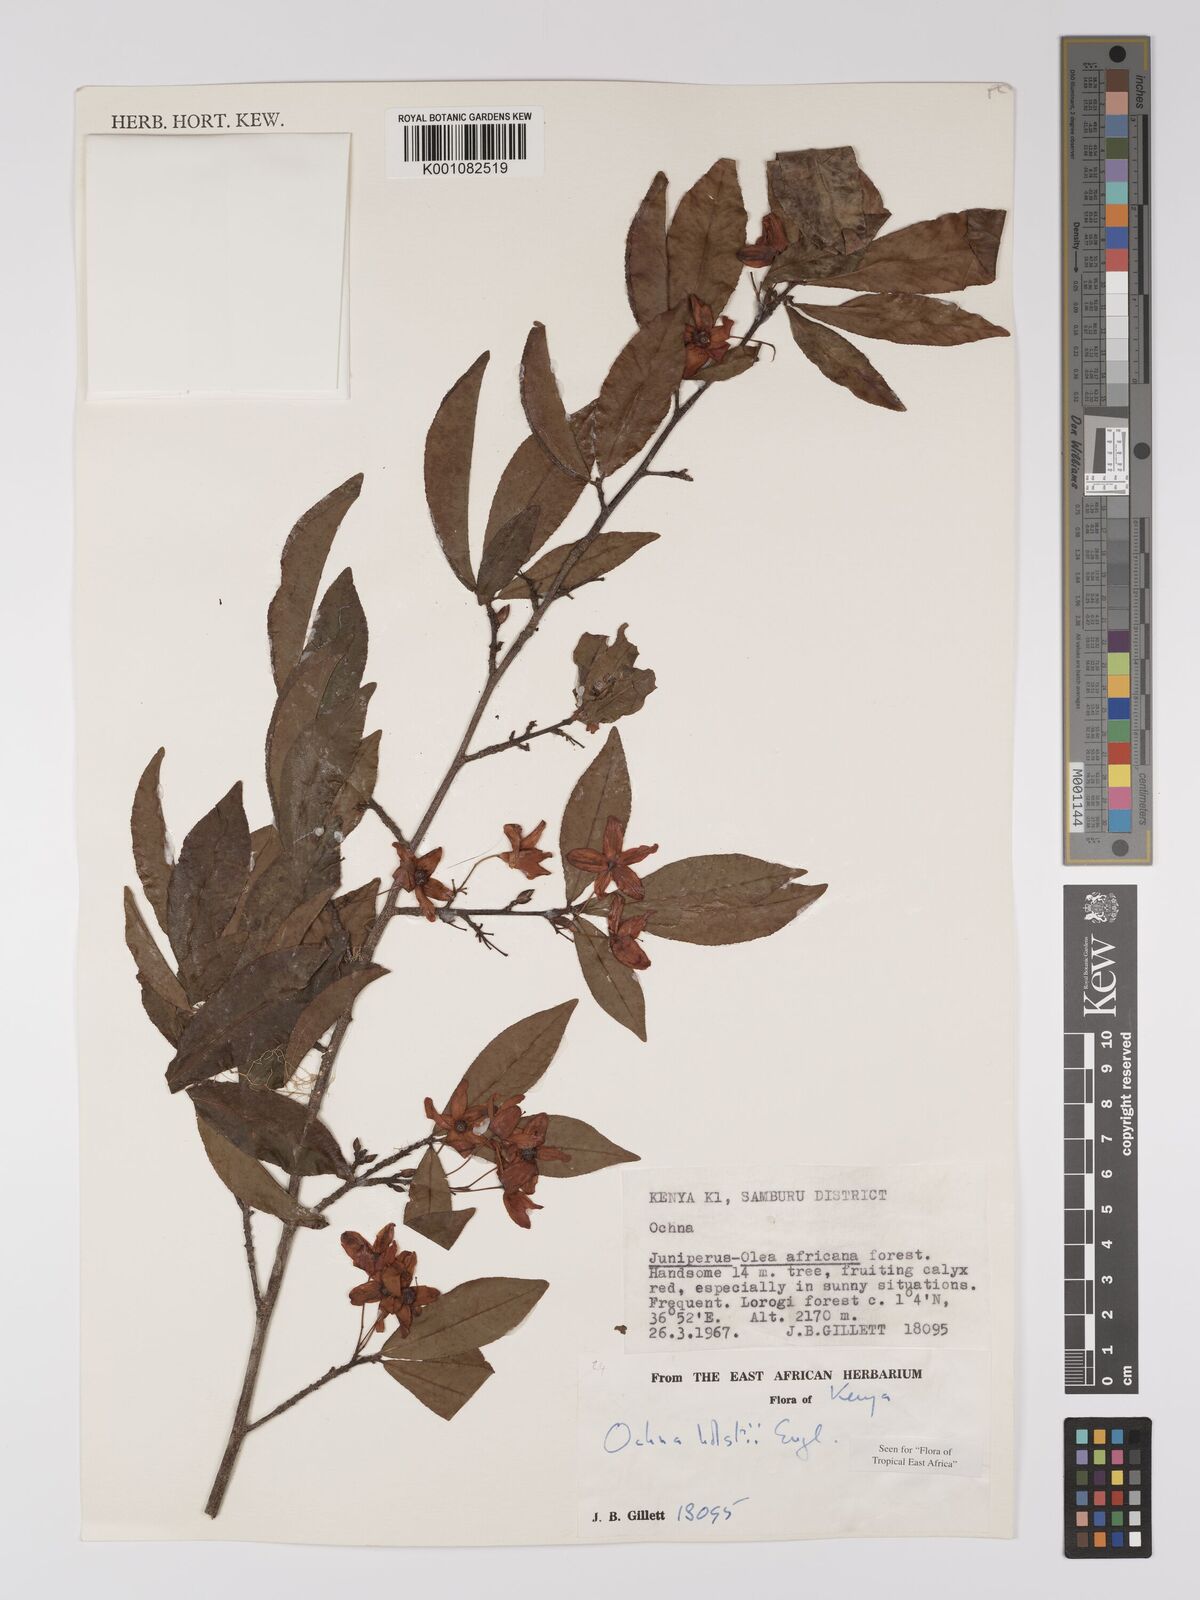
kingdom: Plantae
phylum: Tracheophyta
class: Magnoliopsida
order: Malpighiales
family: Ochnaceae
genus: Ochna
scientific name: Ochna holstii
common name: Red ironwood
